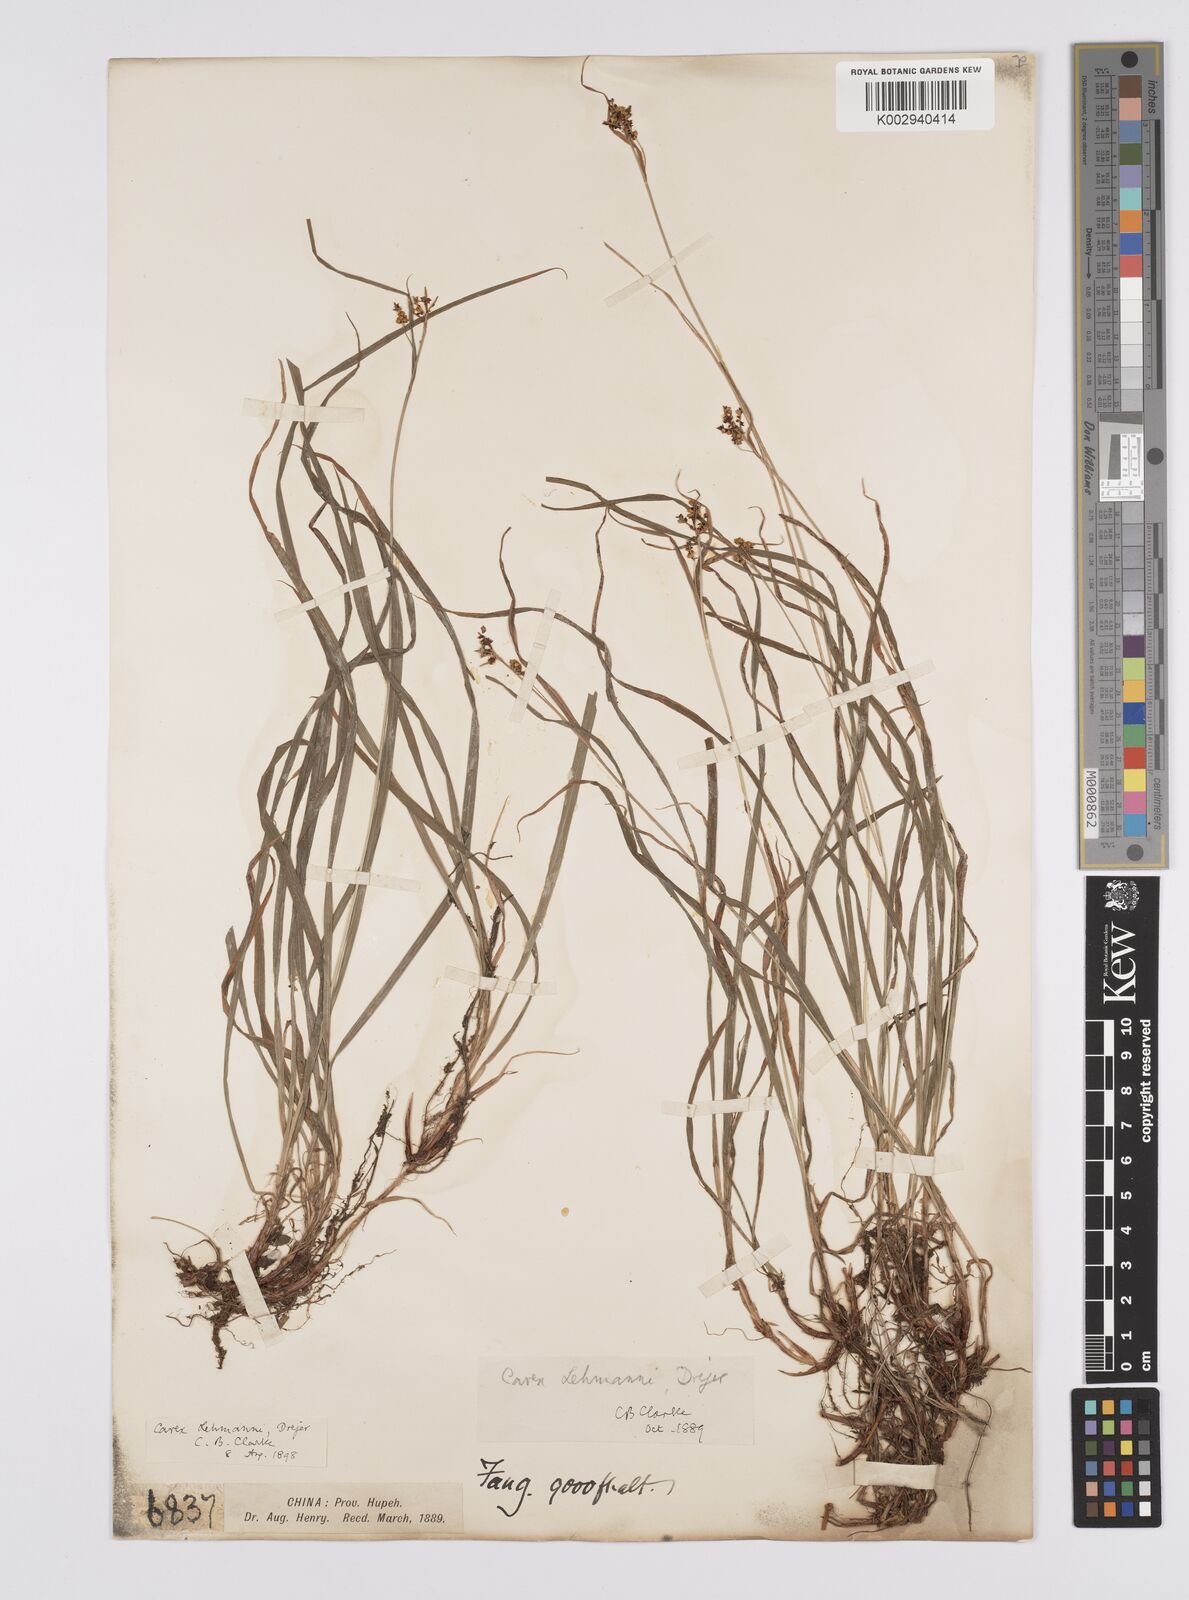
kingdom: Plantae
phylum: Tracheophyta
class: Liliopsida
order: Poales
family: Cyperaceae
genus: Carex
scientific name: Carex lehmannii
